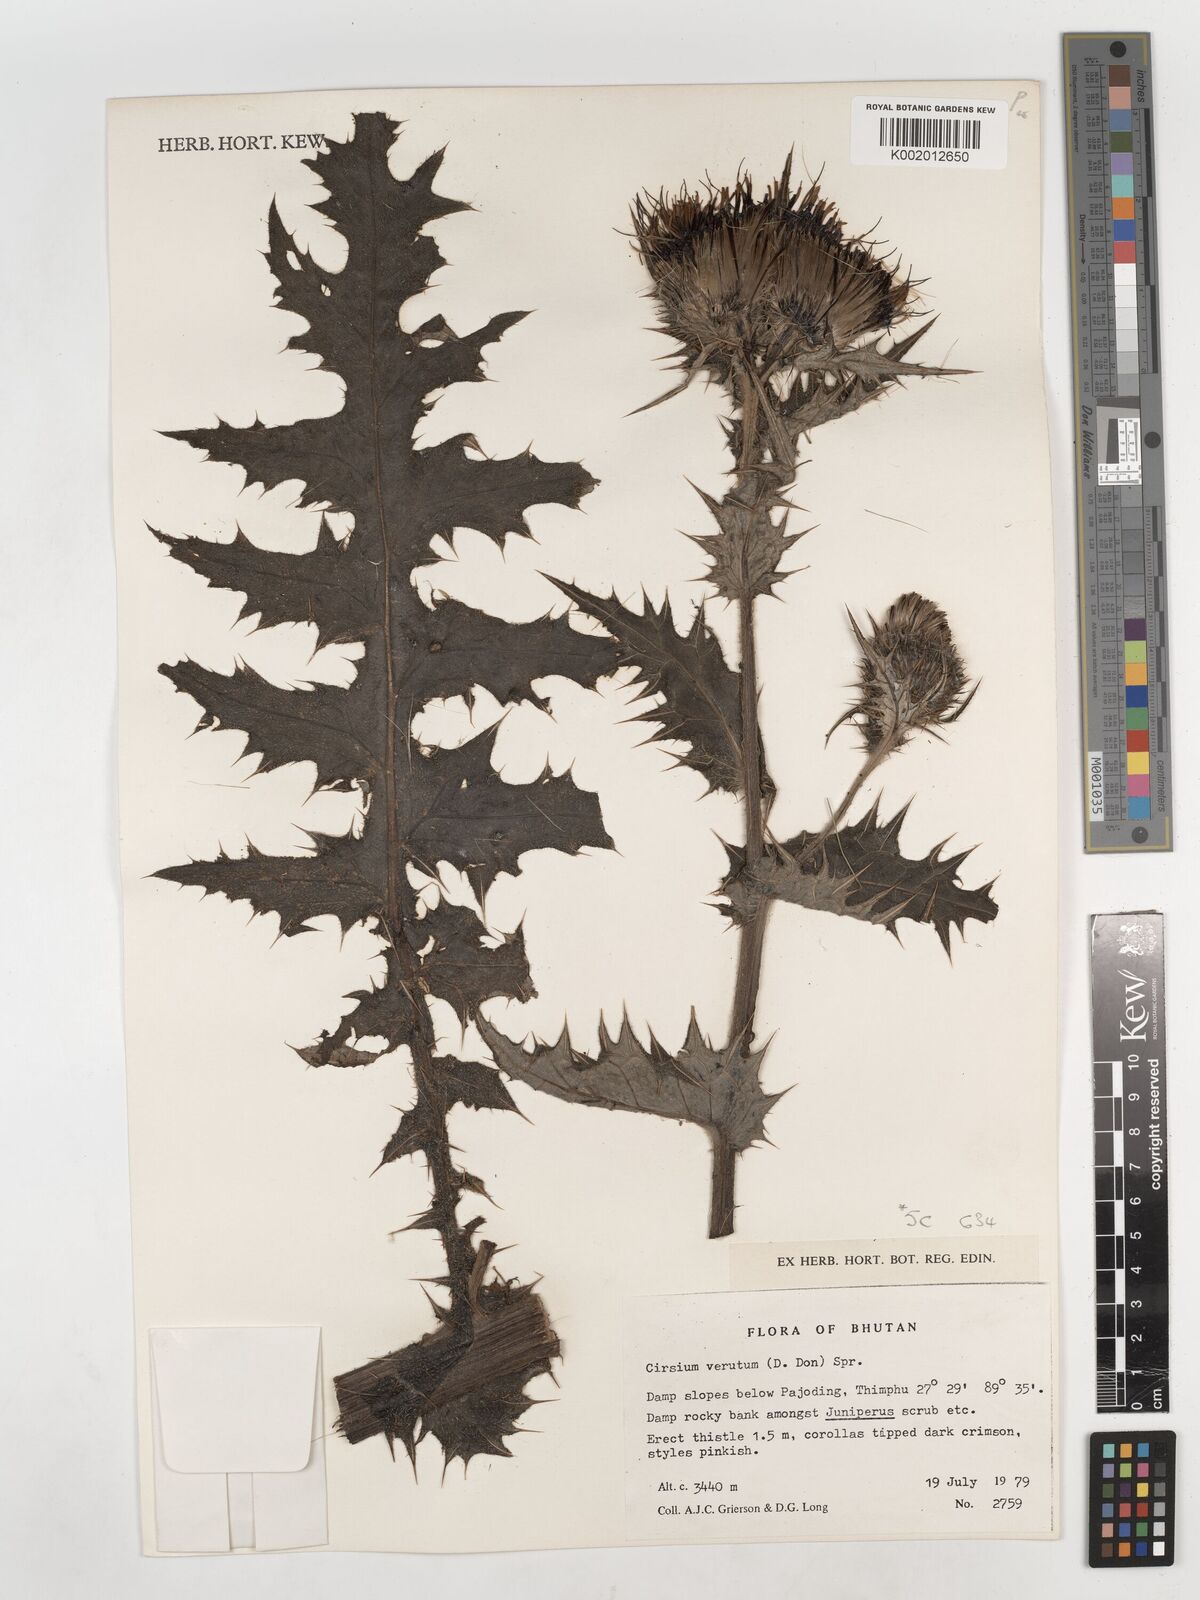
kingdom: Plantae
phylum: Tracheophyta
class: Magnoliopsida
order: Asterales
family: Asteraceae
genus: Lophiolepis
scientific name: Lophiolepis veruta
